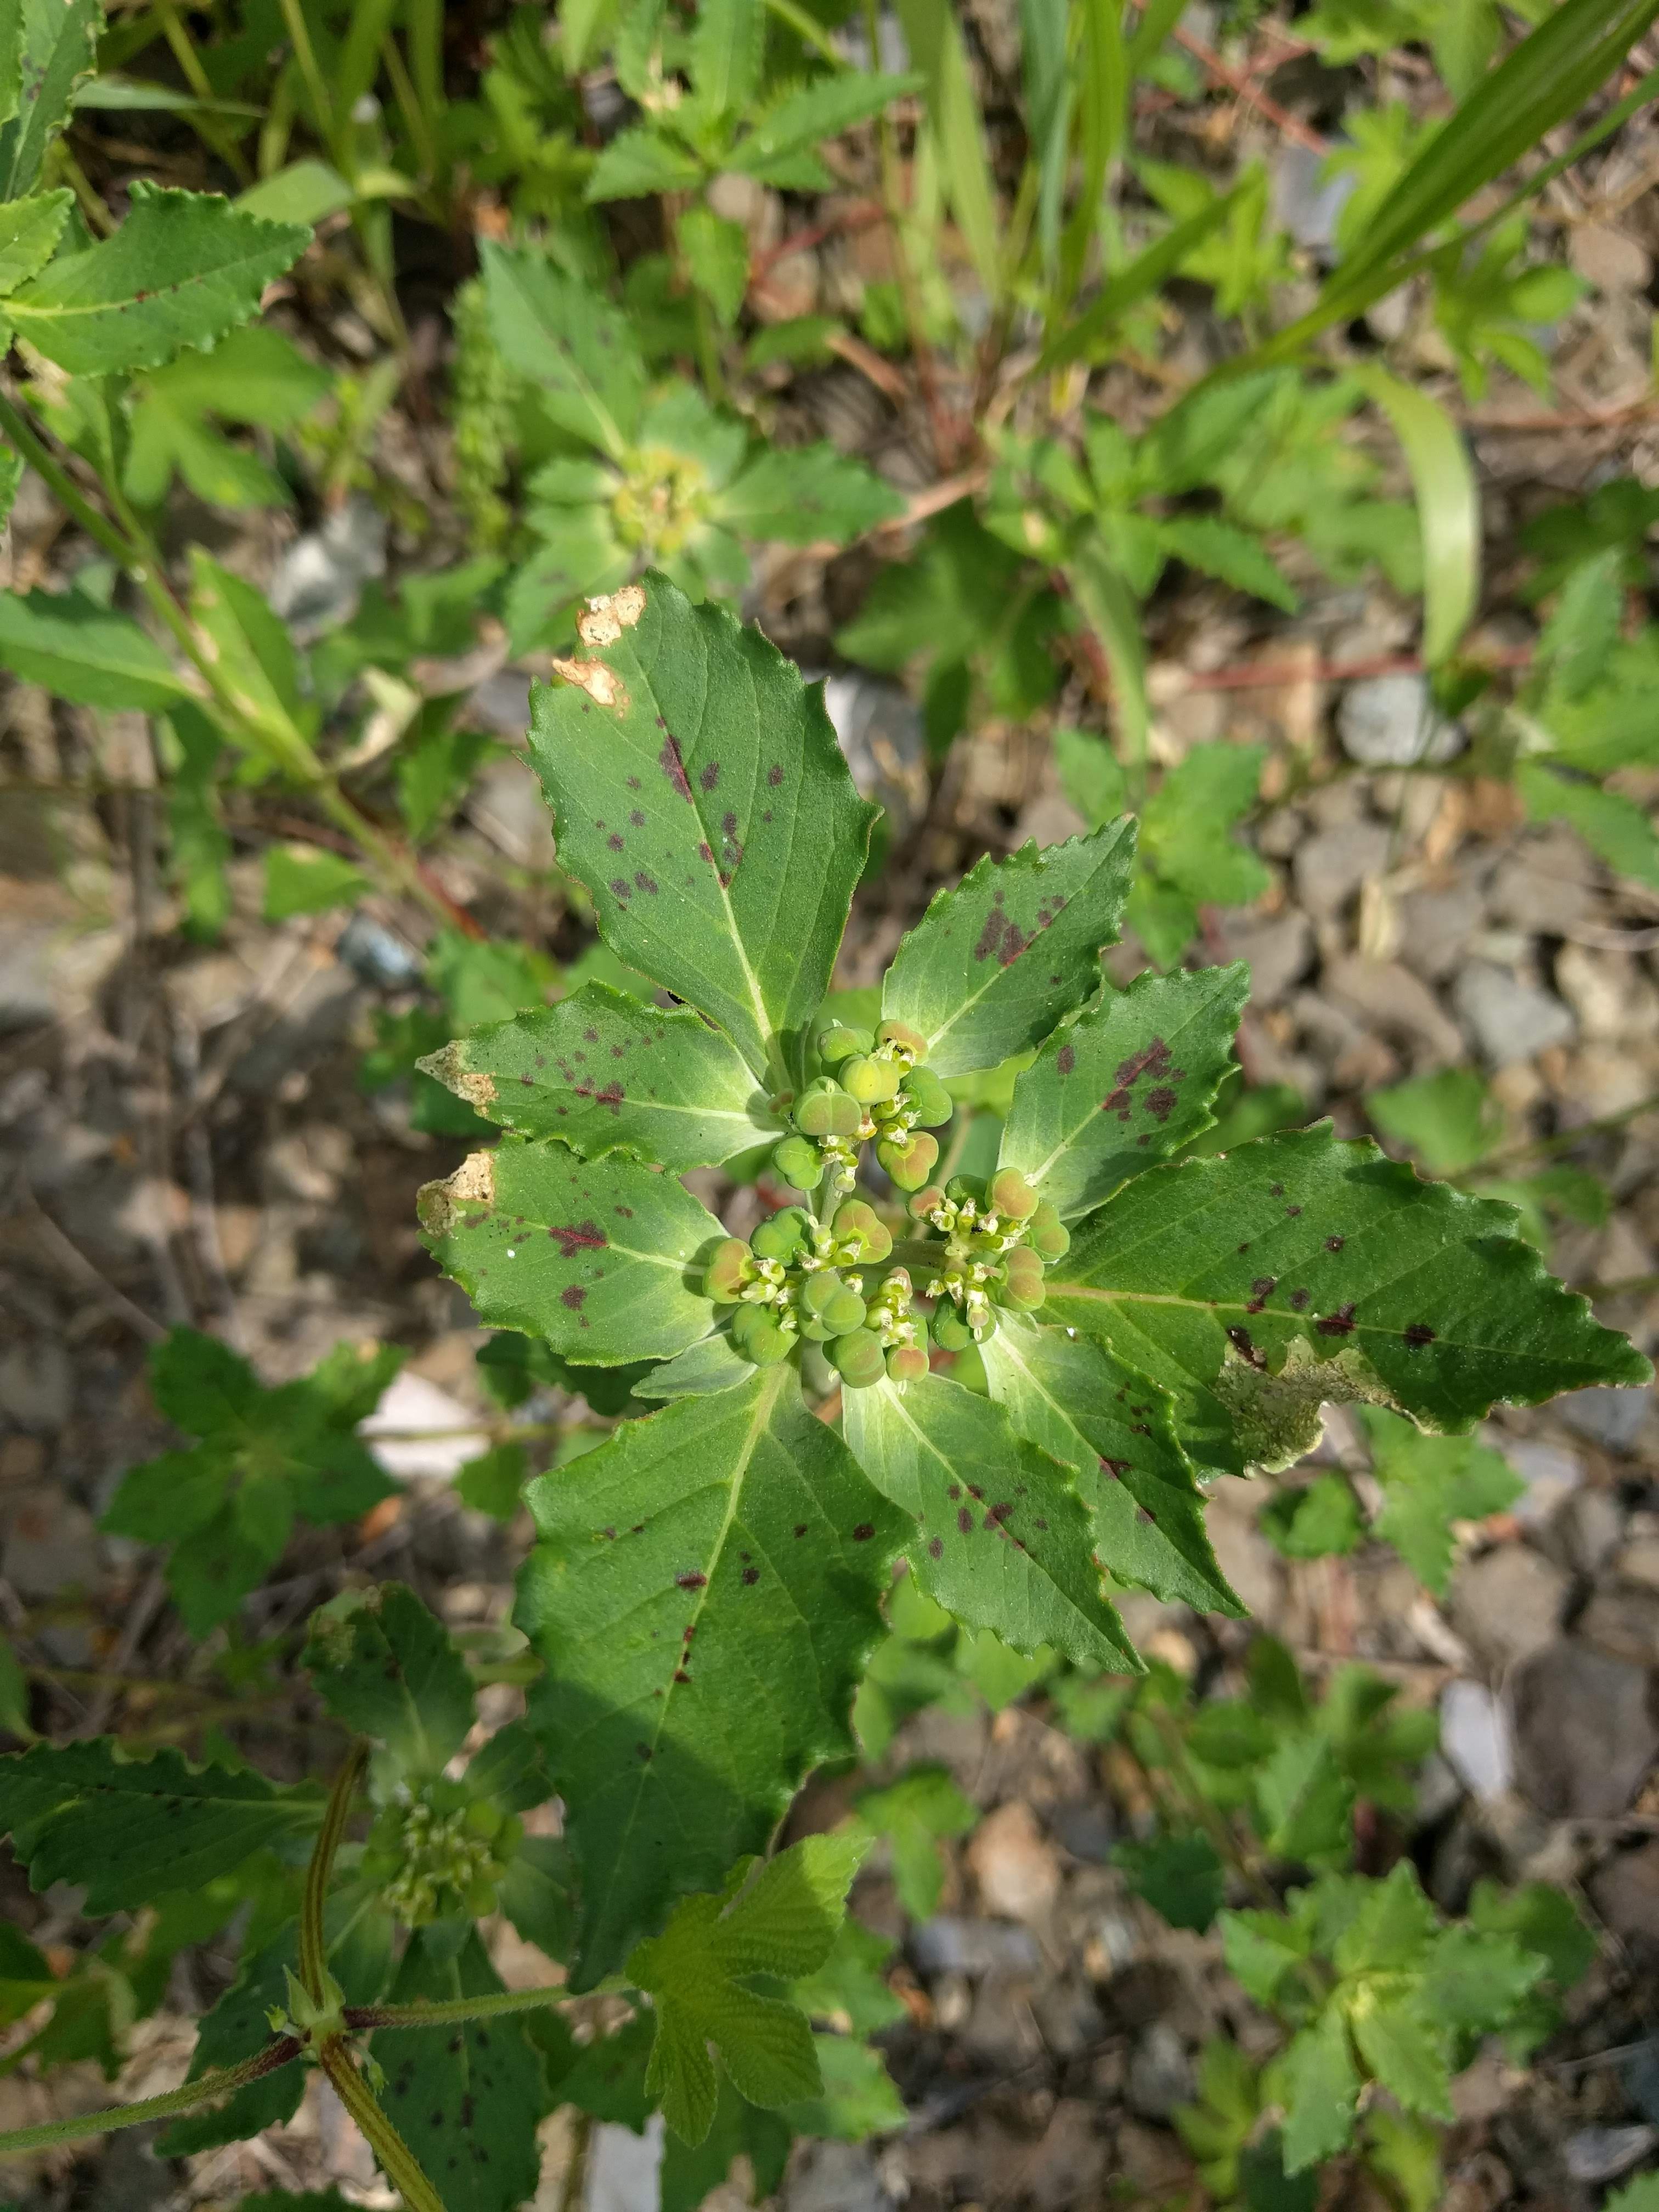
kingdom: Plantae
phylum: Tracheophyta
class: Magnoliopsida
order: Malpighiales
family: Euphorbiaceae
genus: Euphorbia
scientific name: Euphorbia davidii
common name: David's spurge
